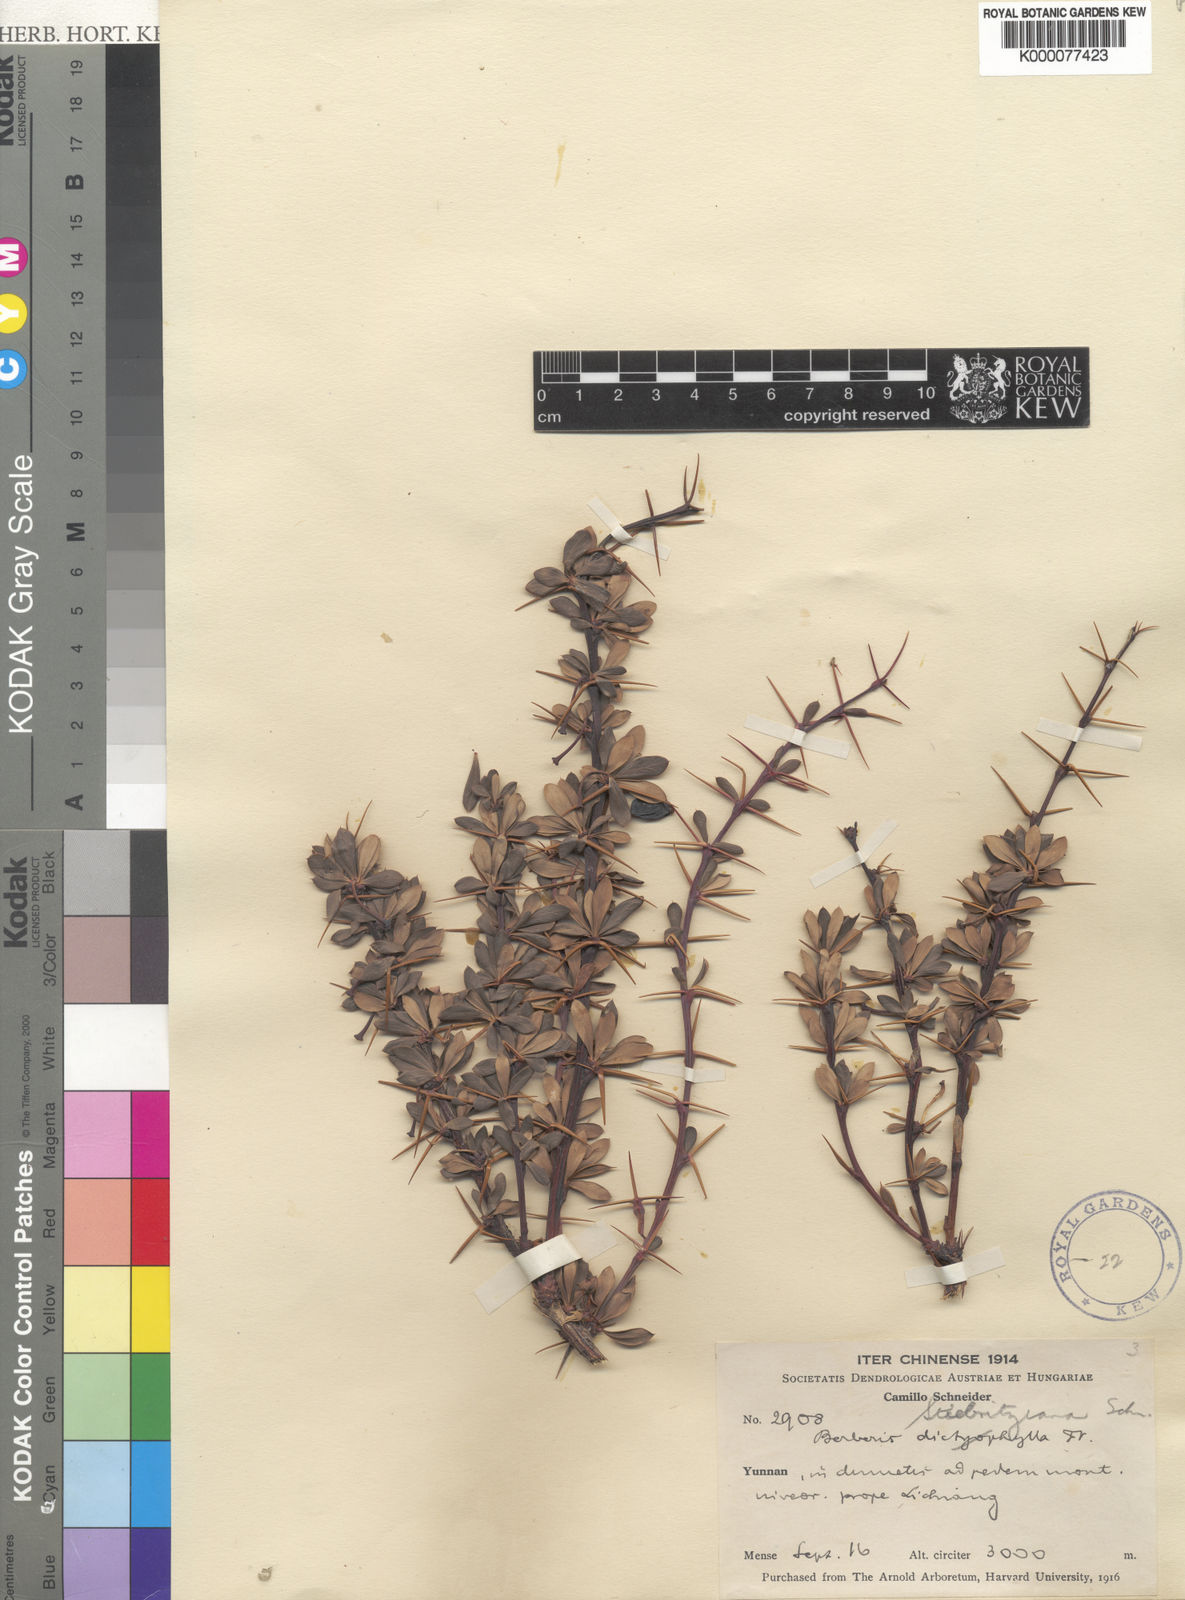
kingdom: Plantae
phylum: Tracheophyta
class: Magnoliopsida
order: Ranunculales
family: Berberidaceae
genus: Berberis
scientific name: Berberis dictyophylla
